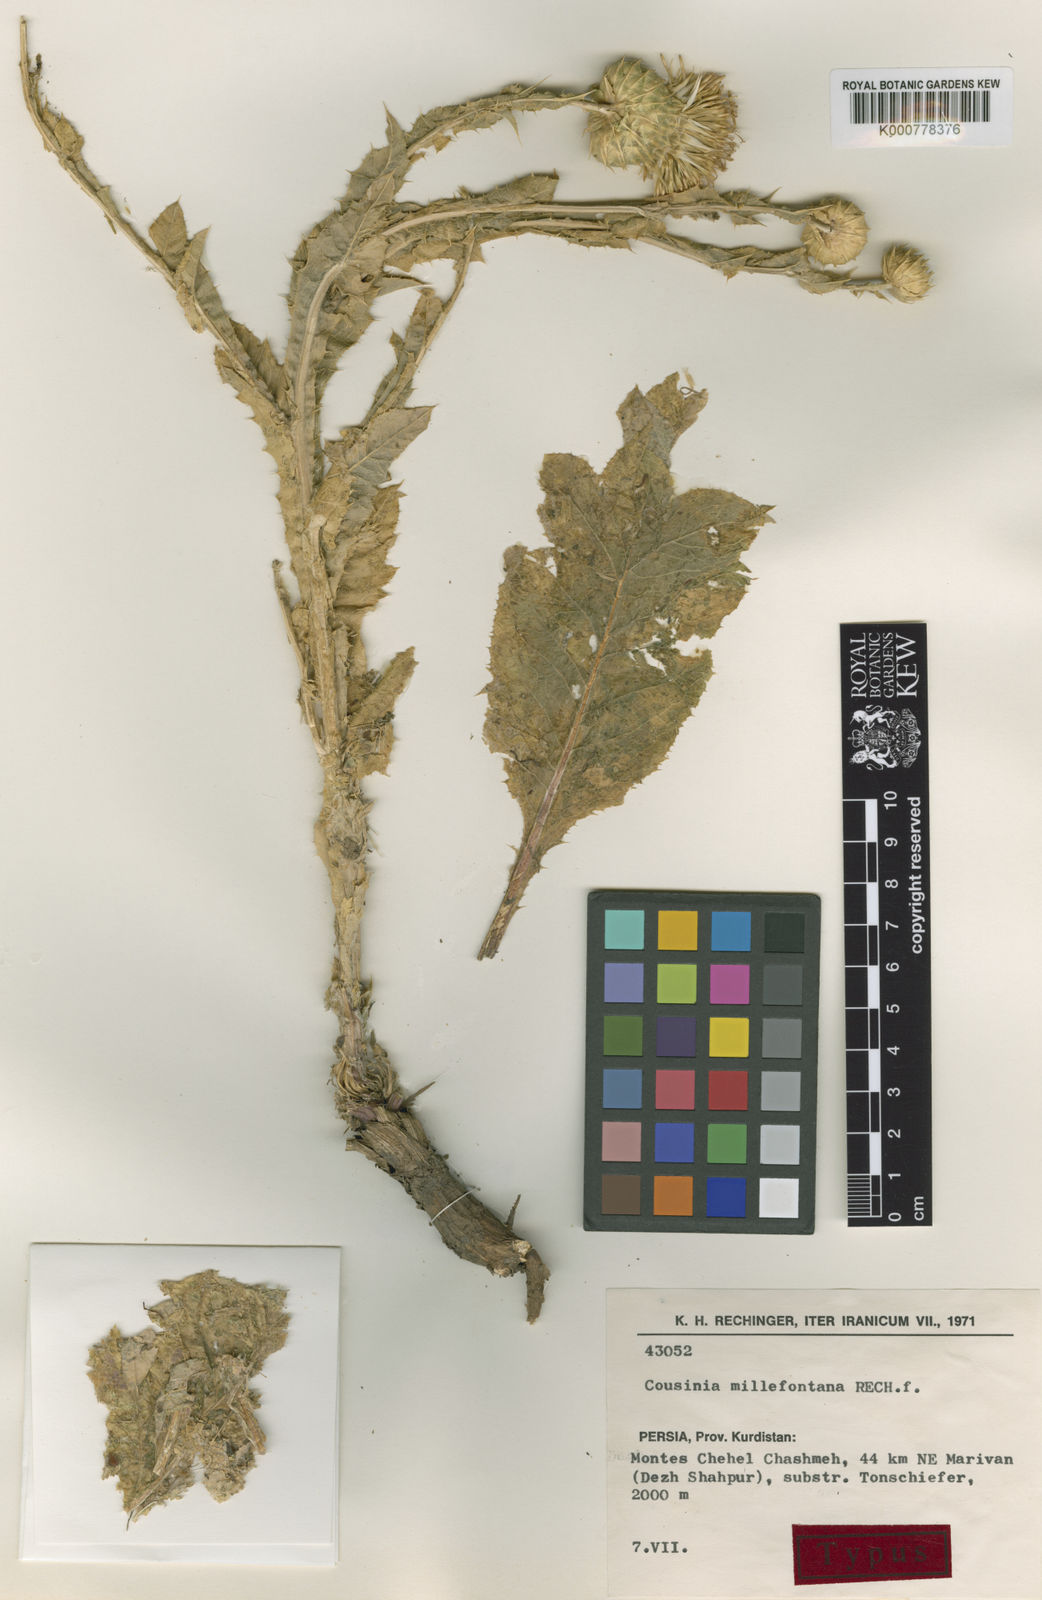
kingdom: Plantae
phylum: Tracheophyta
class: Magnoliopsida
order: Asterales
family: Asteraceae
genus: Cousinia
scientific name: Cousinia millefontana
